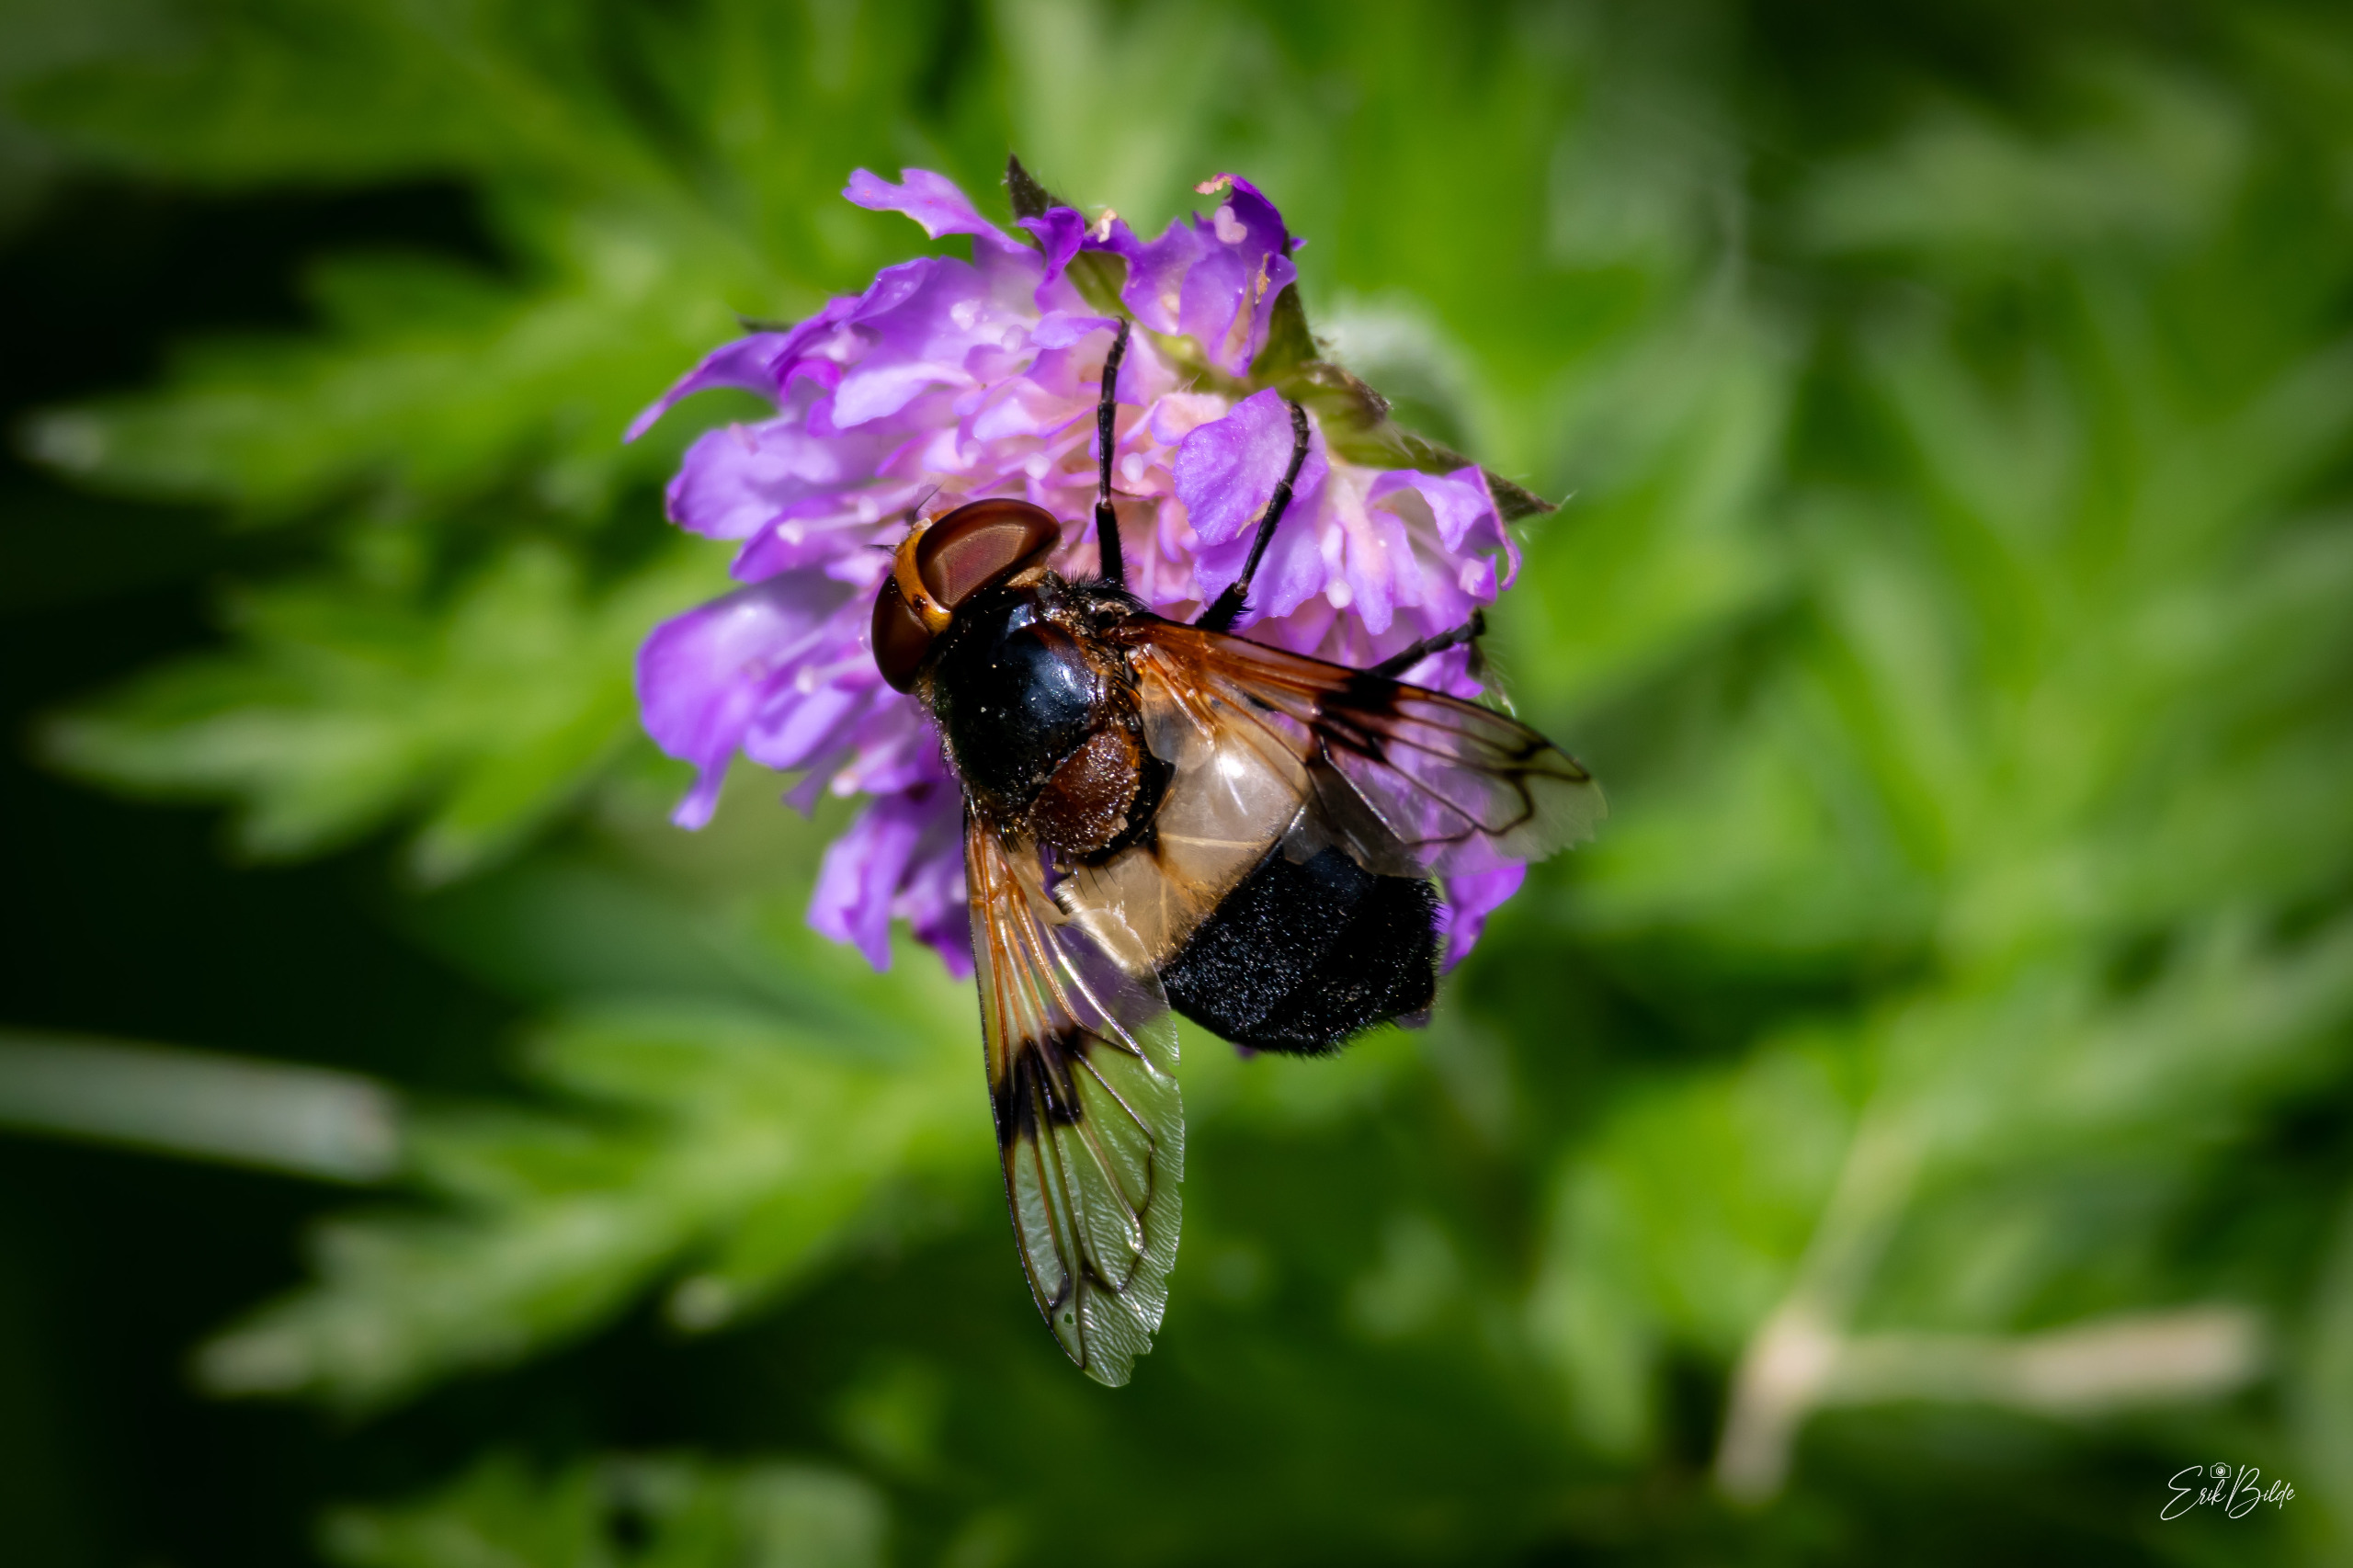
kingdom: Animalia
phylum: Arthropoda
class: Insecta
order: Diptera
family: Syrphidae
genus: Volucella
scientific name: Volucella pellucens
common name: Hvidbåndet humlesvirreflue
